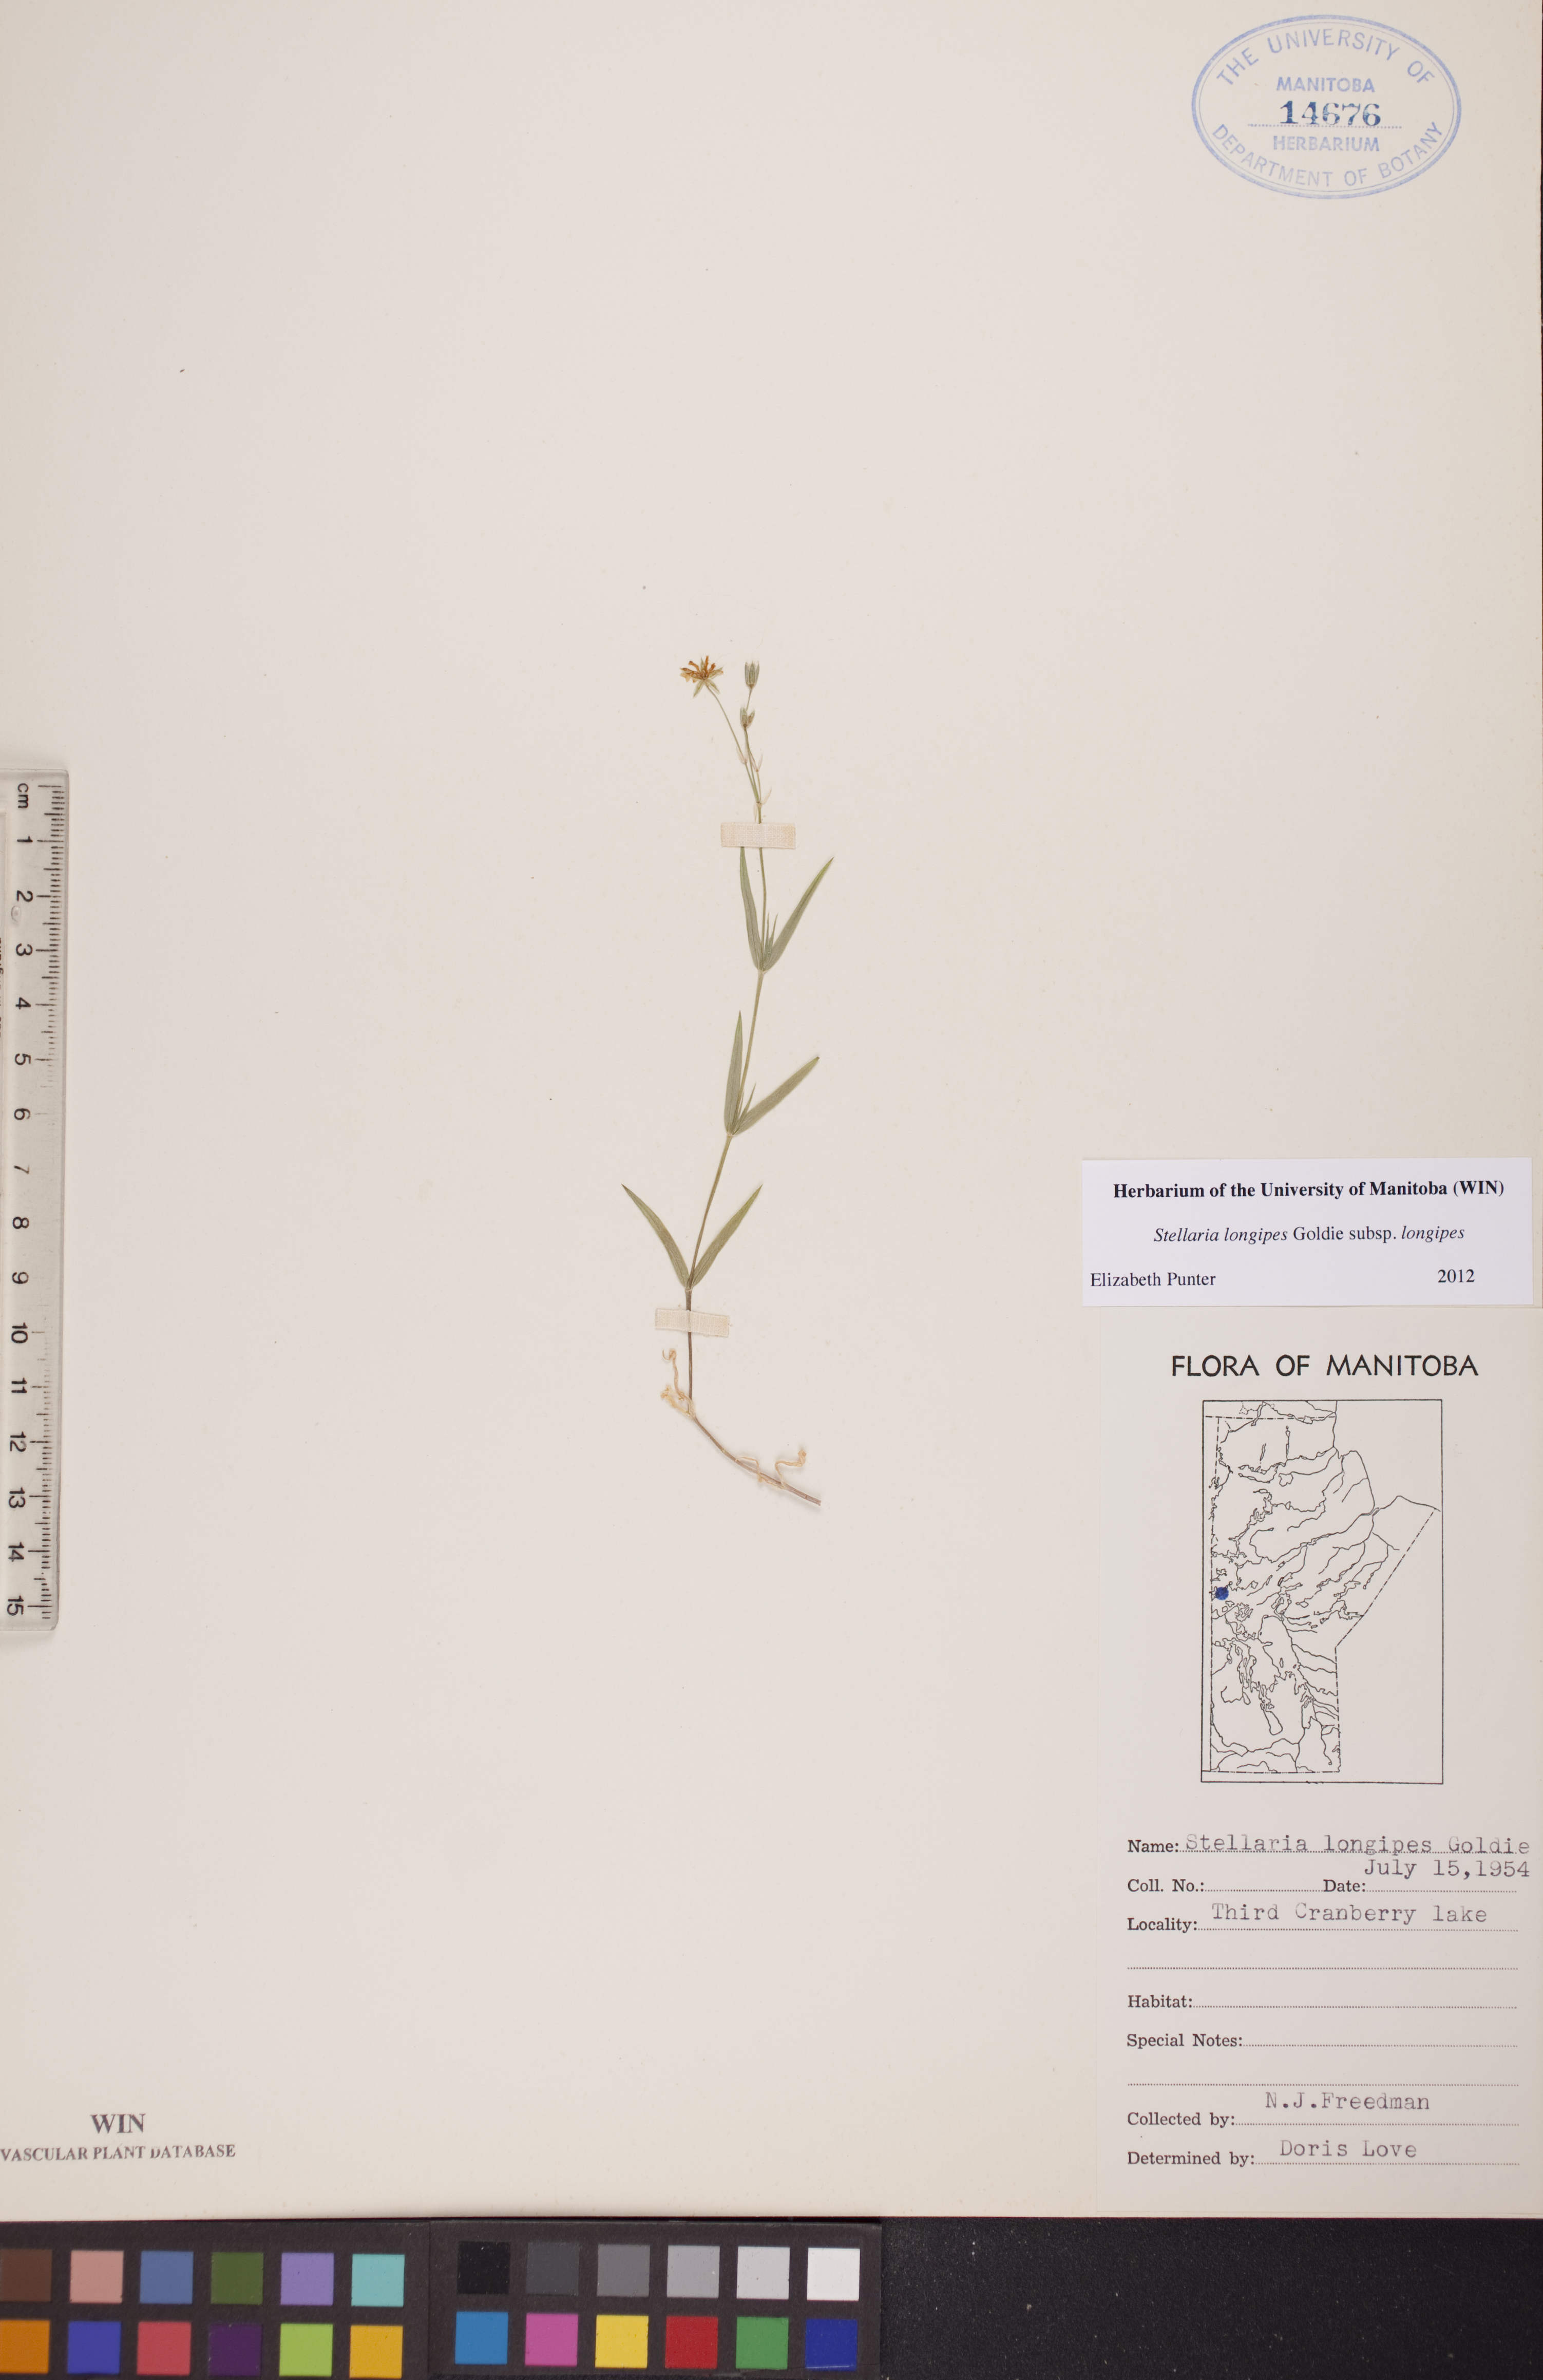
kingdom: Plantae
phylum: Tracheophyta
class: Magnoliopsida
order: Caryophyllales
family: Caryophyllaceae
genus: Stellaria
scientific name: Stellaria longipes
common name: Goldie's starwort
